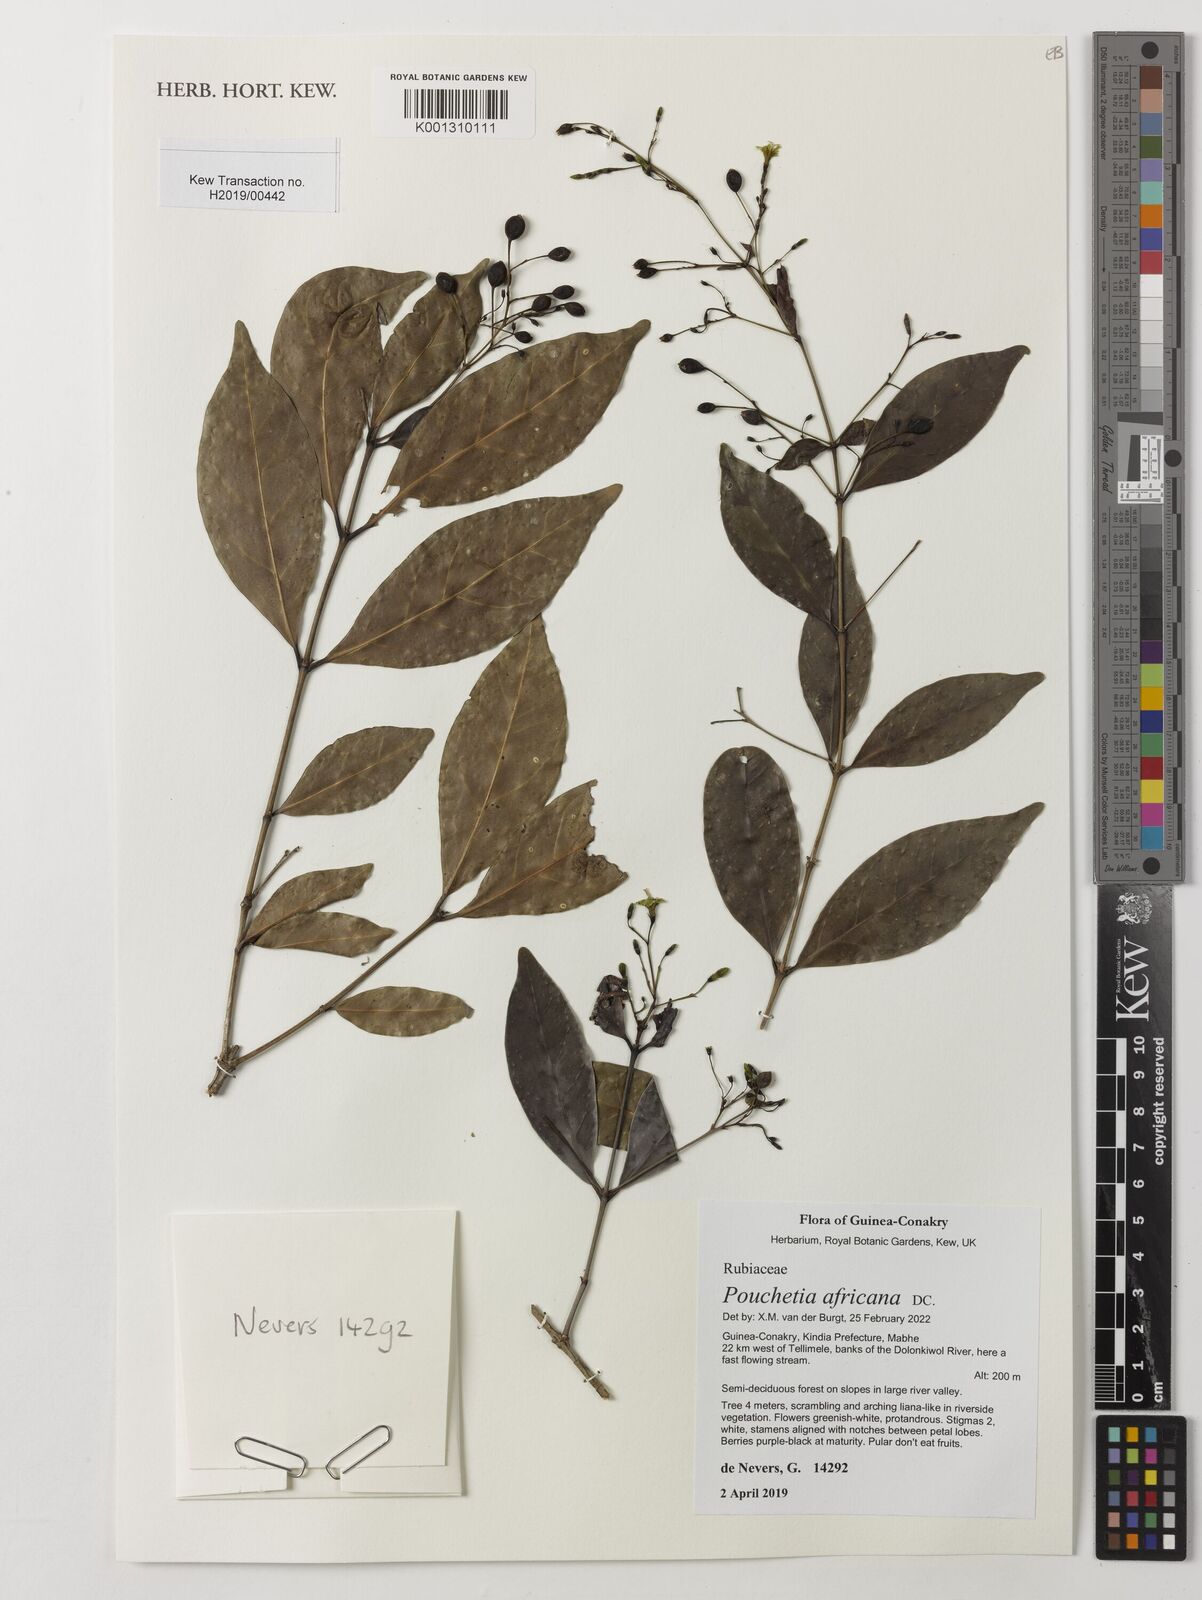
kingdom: Plantae
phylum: Tracheophyta
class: Magnoliopsida
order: Gentianales
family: Rubiaceae
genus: Pouchetia
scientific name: Pouchetia africana
